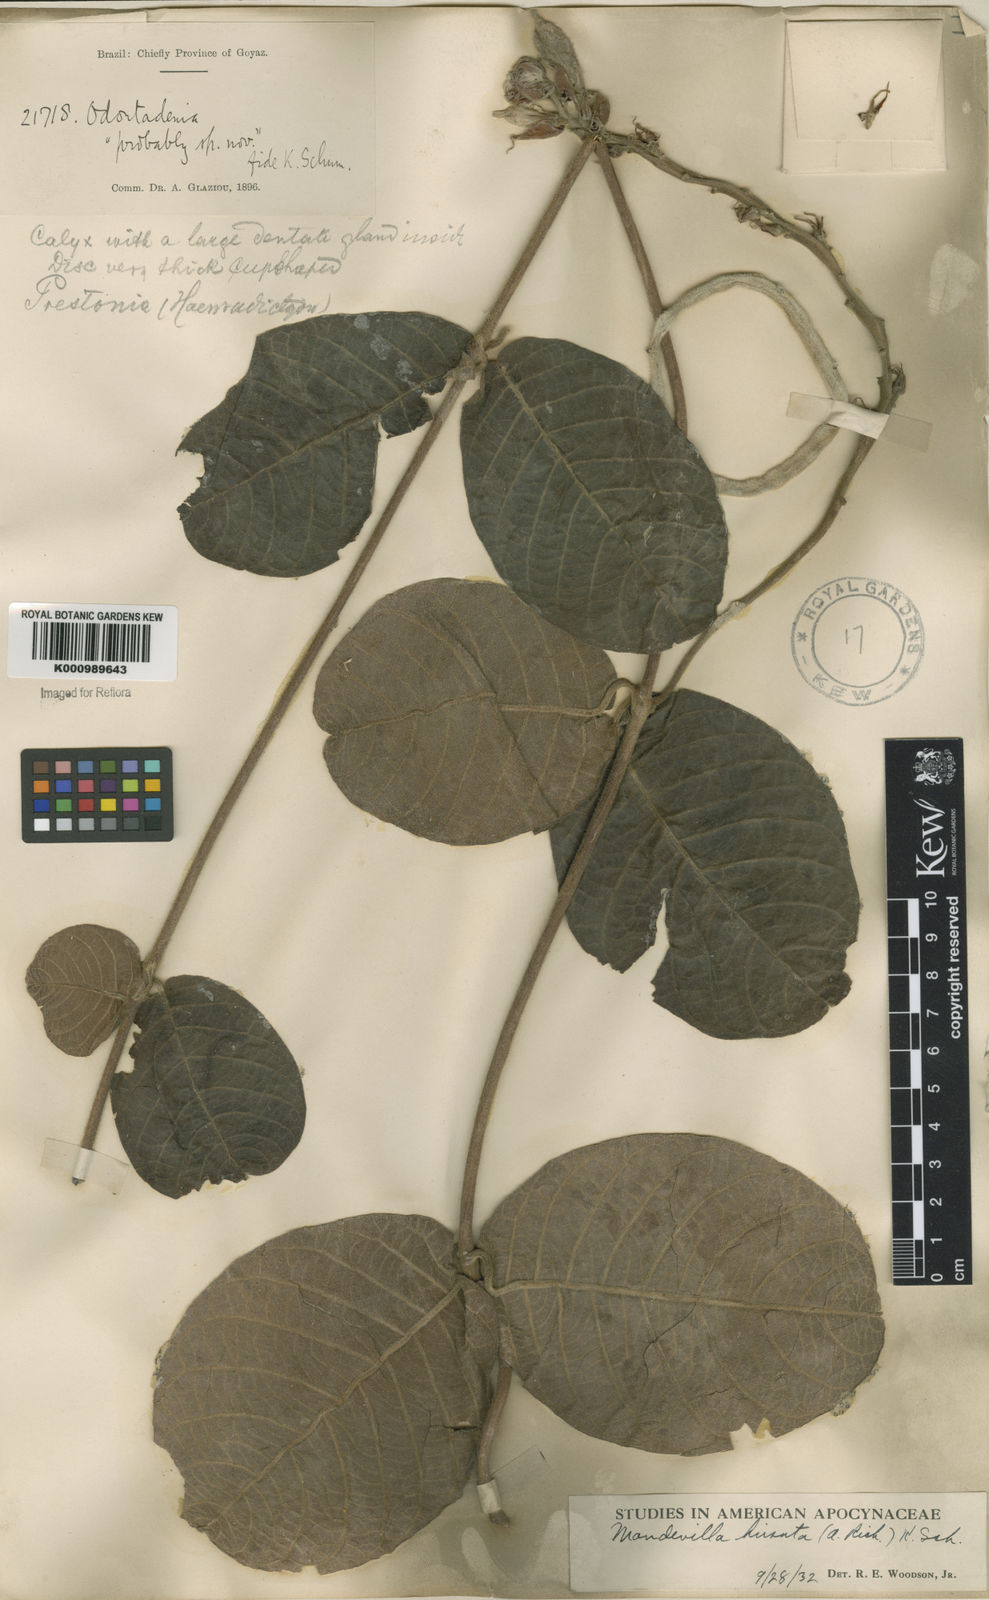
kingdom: Plantae
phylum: Tracheophyta
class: Magnoliopsida
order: Gentianales
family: Apocynaceae
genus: Mandevilla
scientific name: Mandevilla hirsuta
